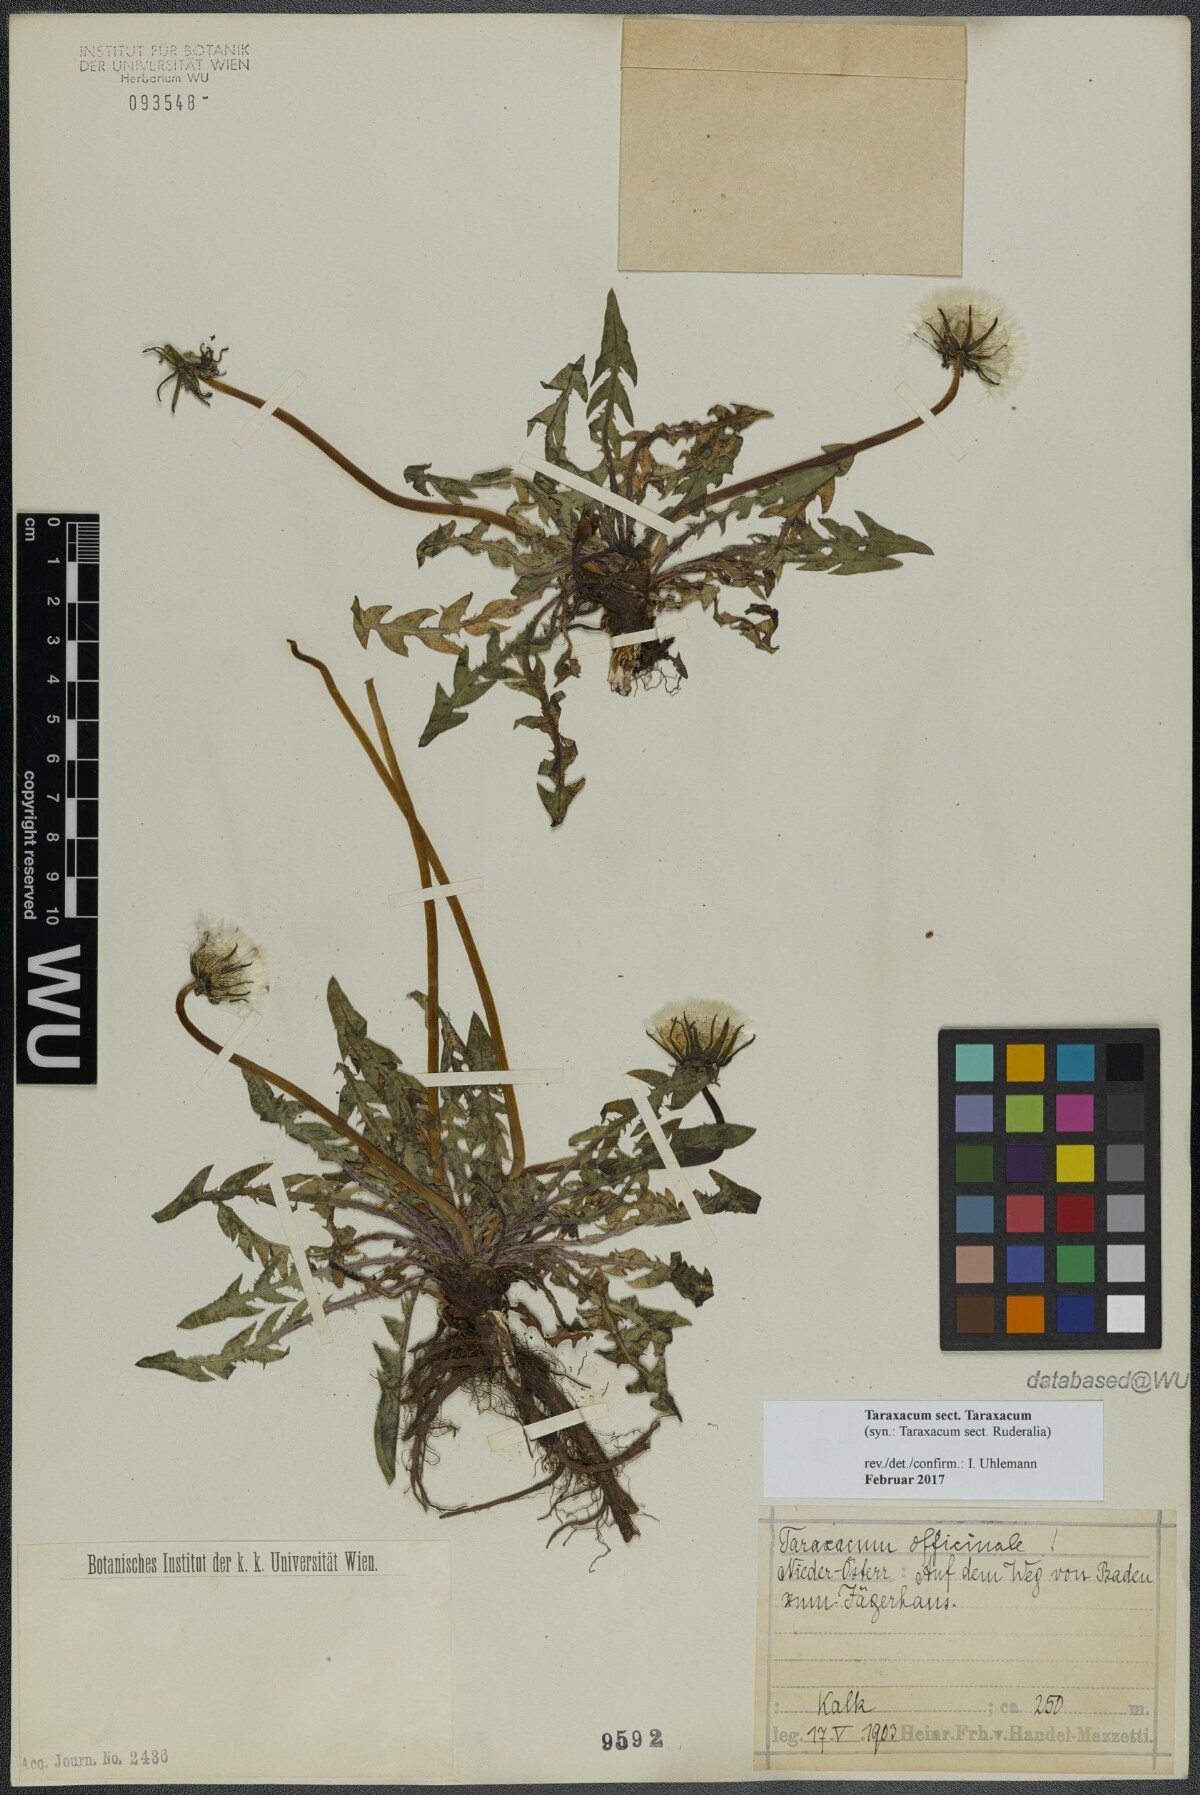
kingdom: Plantae
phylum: Tracheophyta
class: Magnoliopsida
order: Asterales
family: Asteraceae
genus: Taraxacum
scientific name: Taraxacum
